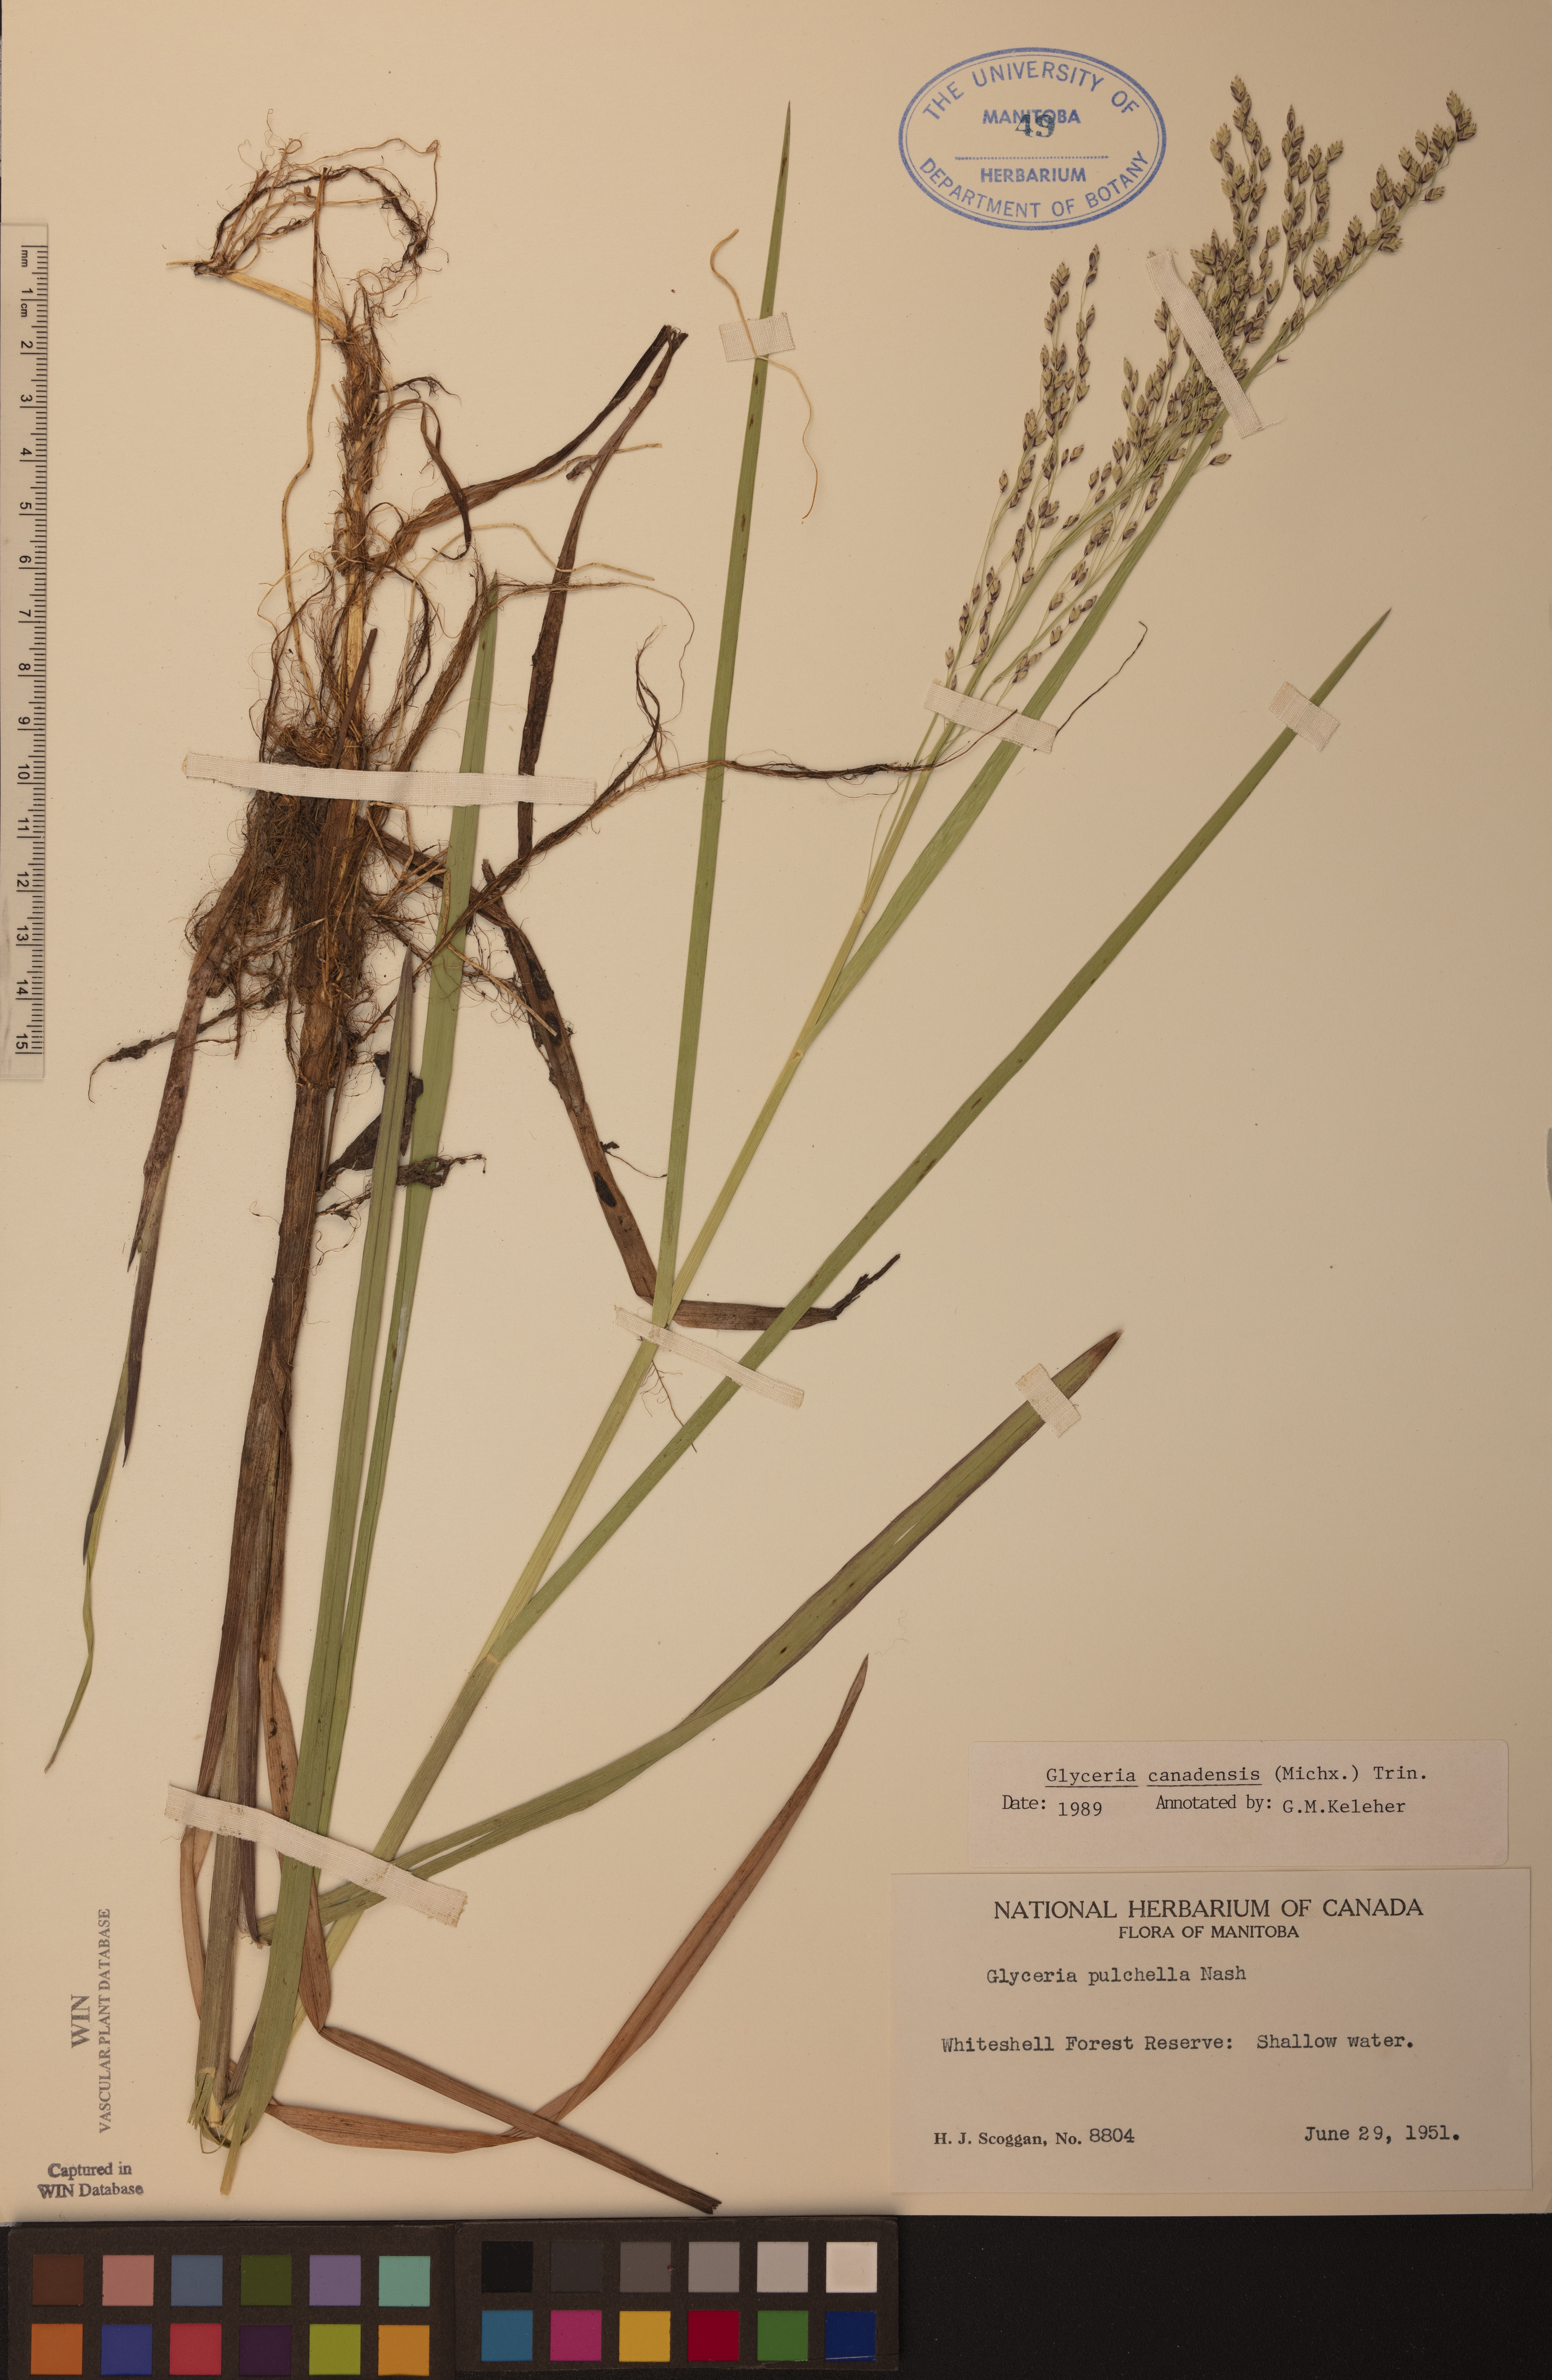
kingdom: Plantae
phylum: Tracheophyta
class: Liliopsida
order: Poales
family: Poaceae
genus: Glyceria
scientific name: Glyceria canadensis
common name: Canada mannagrass
